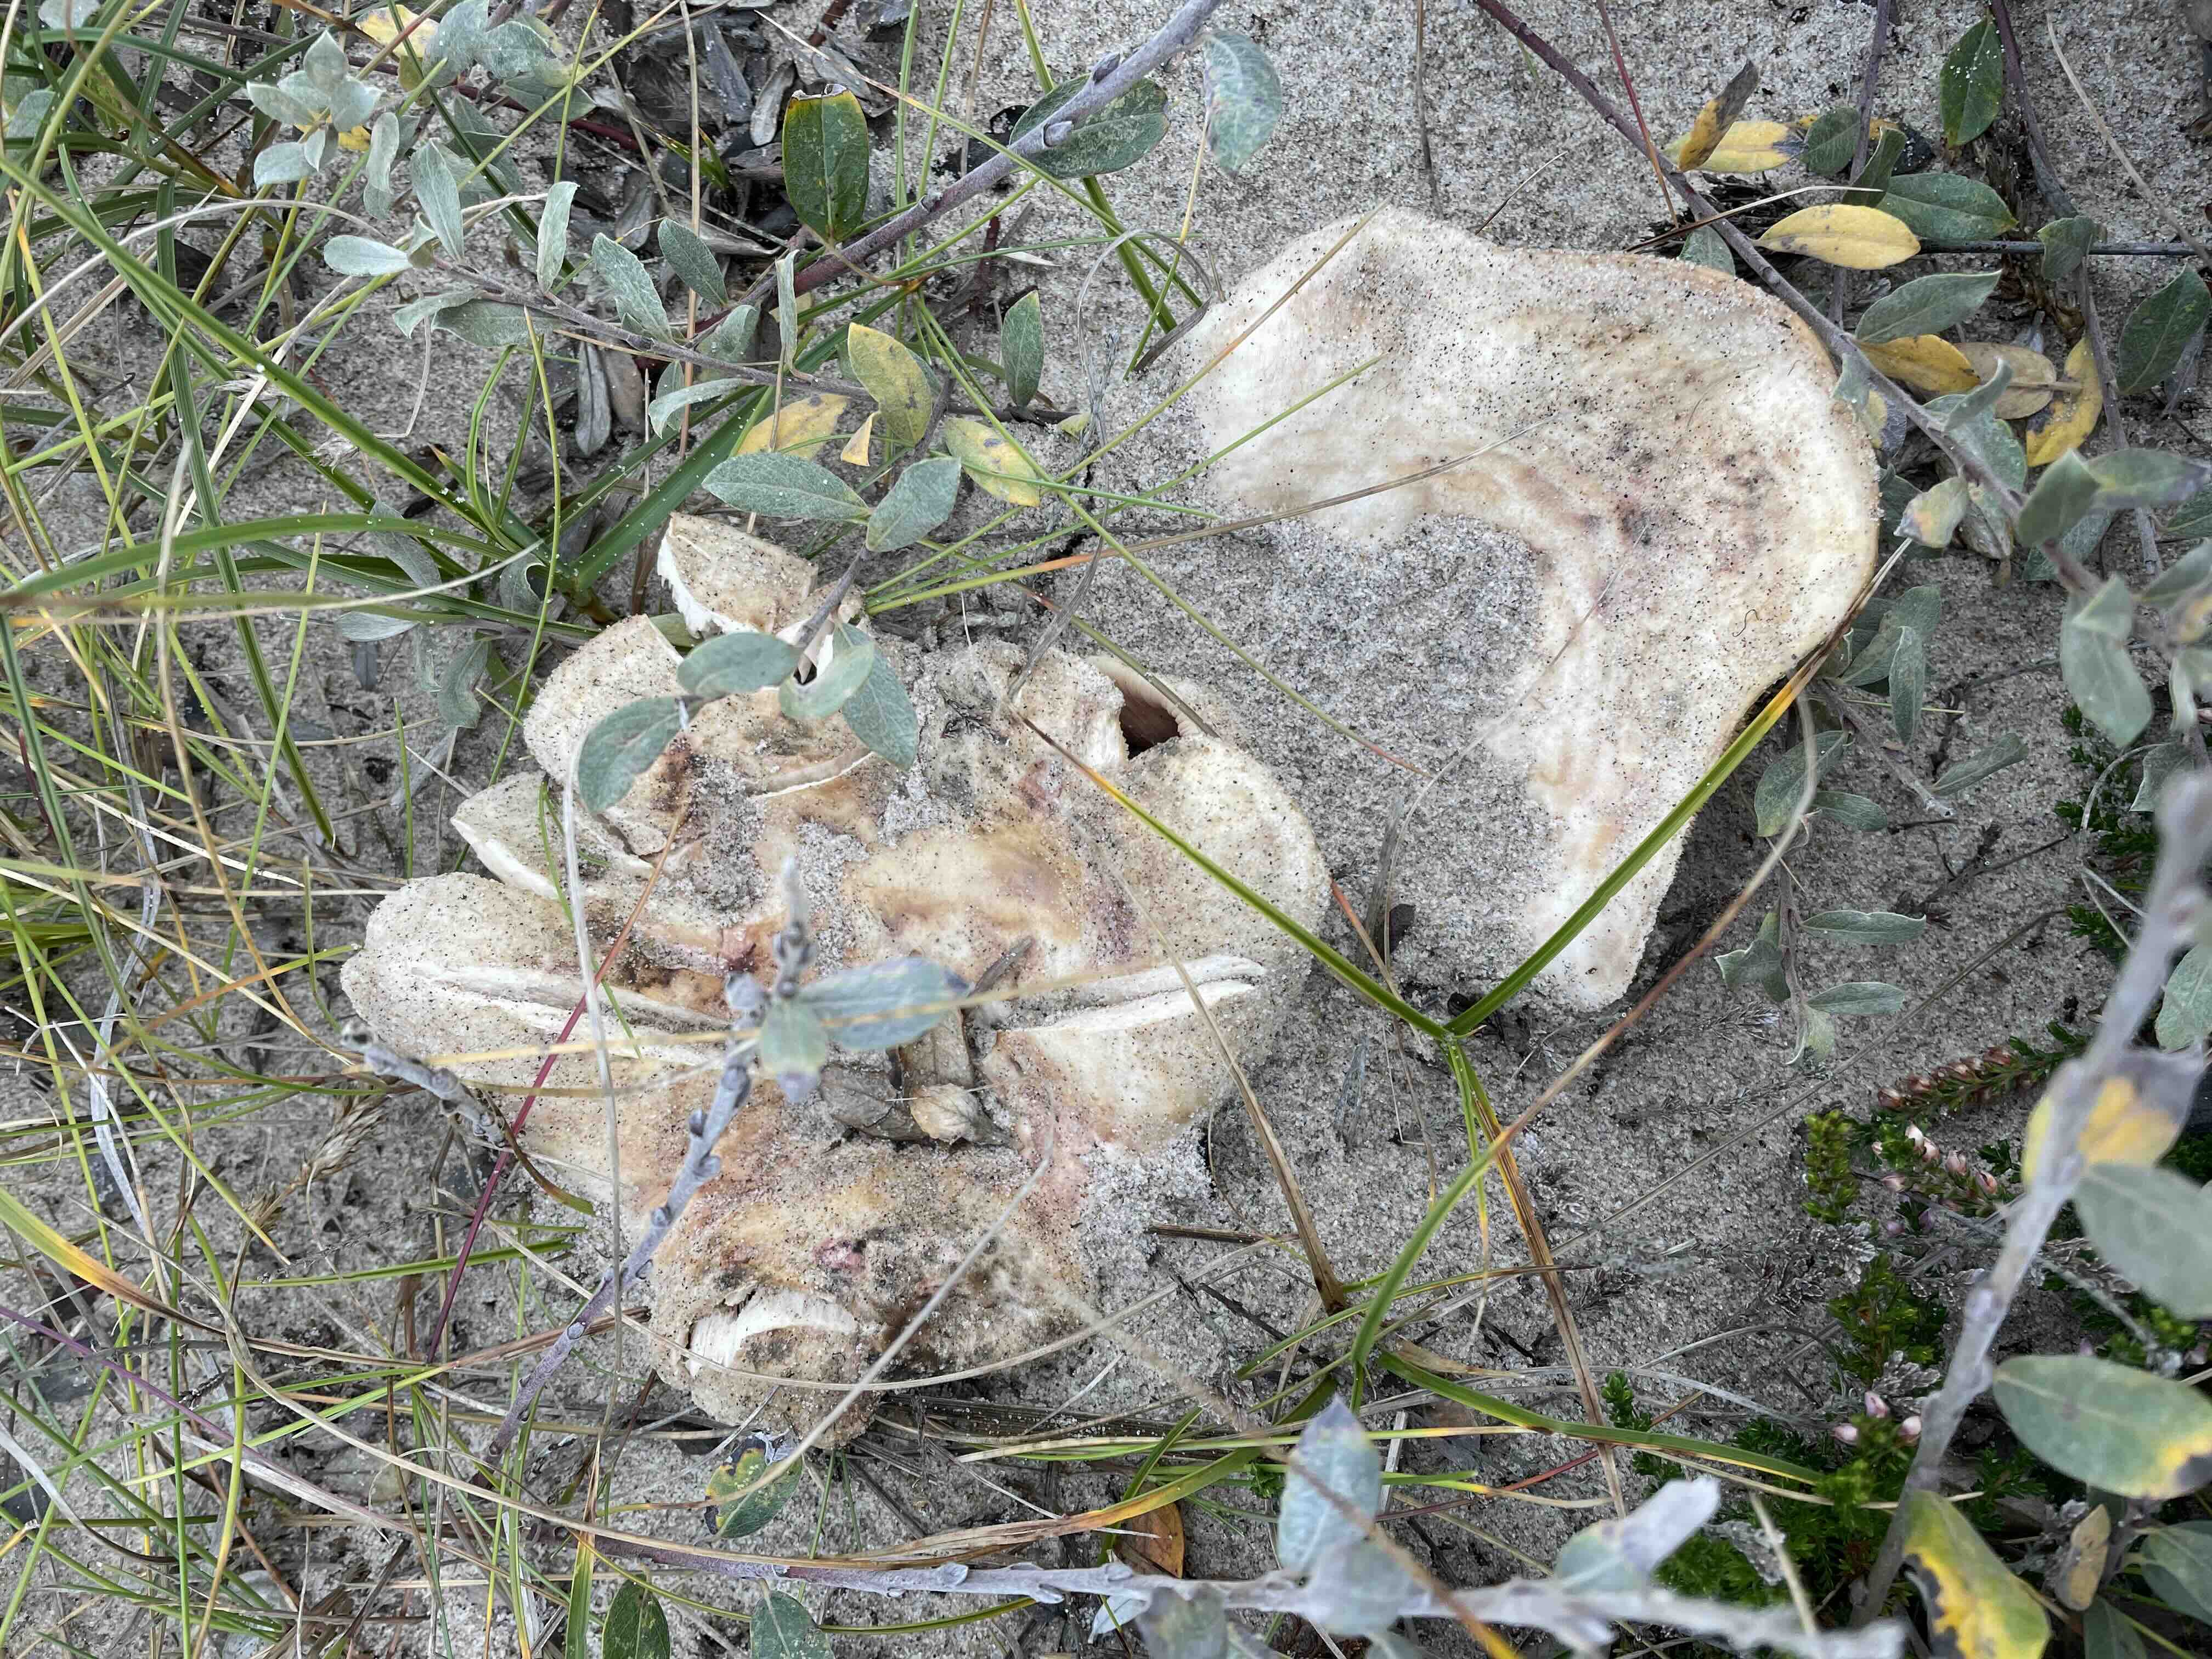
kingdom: Fungi
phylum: Basidiomycota
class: Agaricomycetes
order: Russulales
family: Russulaceae
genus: Lactarius
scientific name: Lactarius controversus
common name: rosabladet mælkehat
